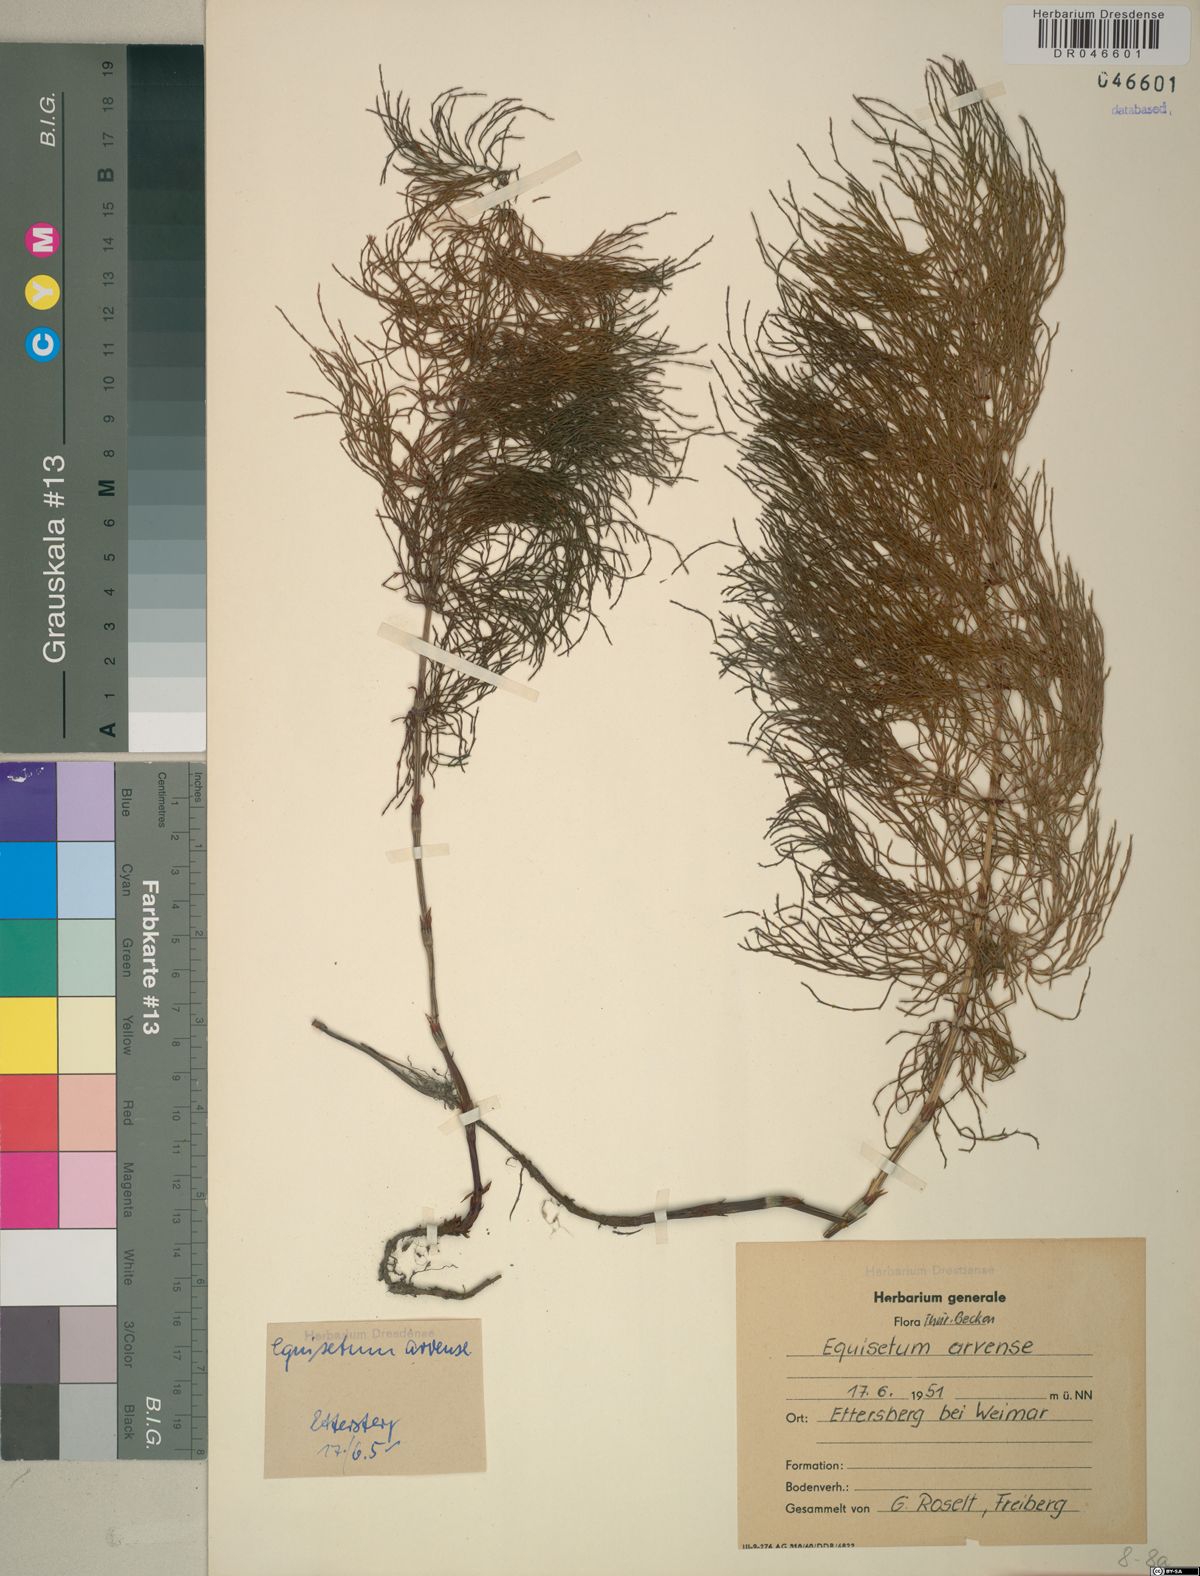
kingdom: Plantae
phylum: Tracheophyta
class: Polypodiopsida
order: Equisetales
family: Equisetaceae
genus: Equisetum
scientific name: Equisetum arvense
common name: Field horsetail
